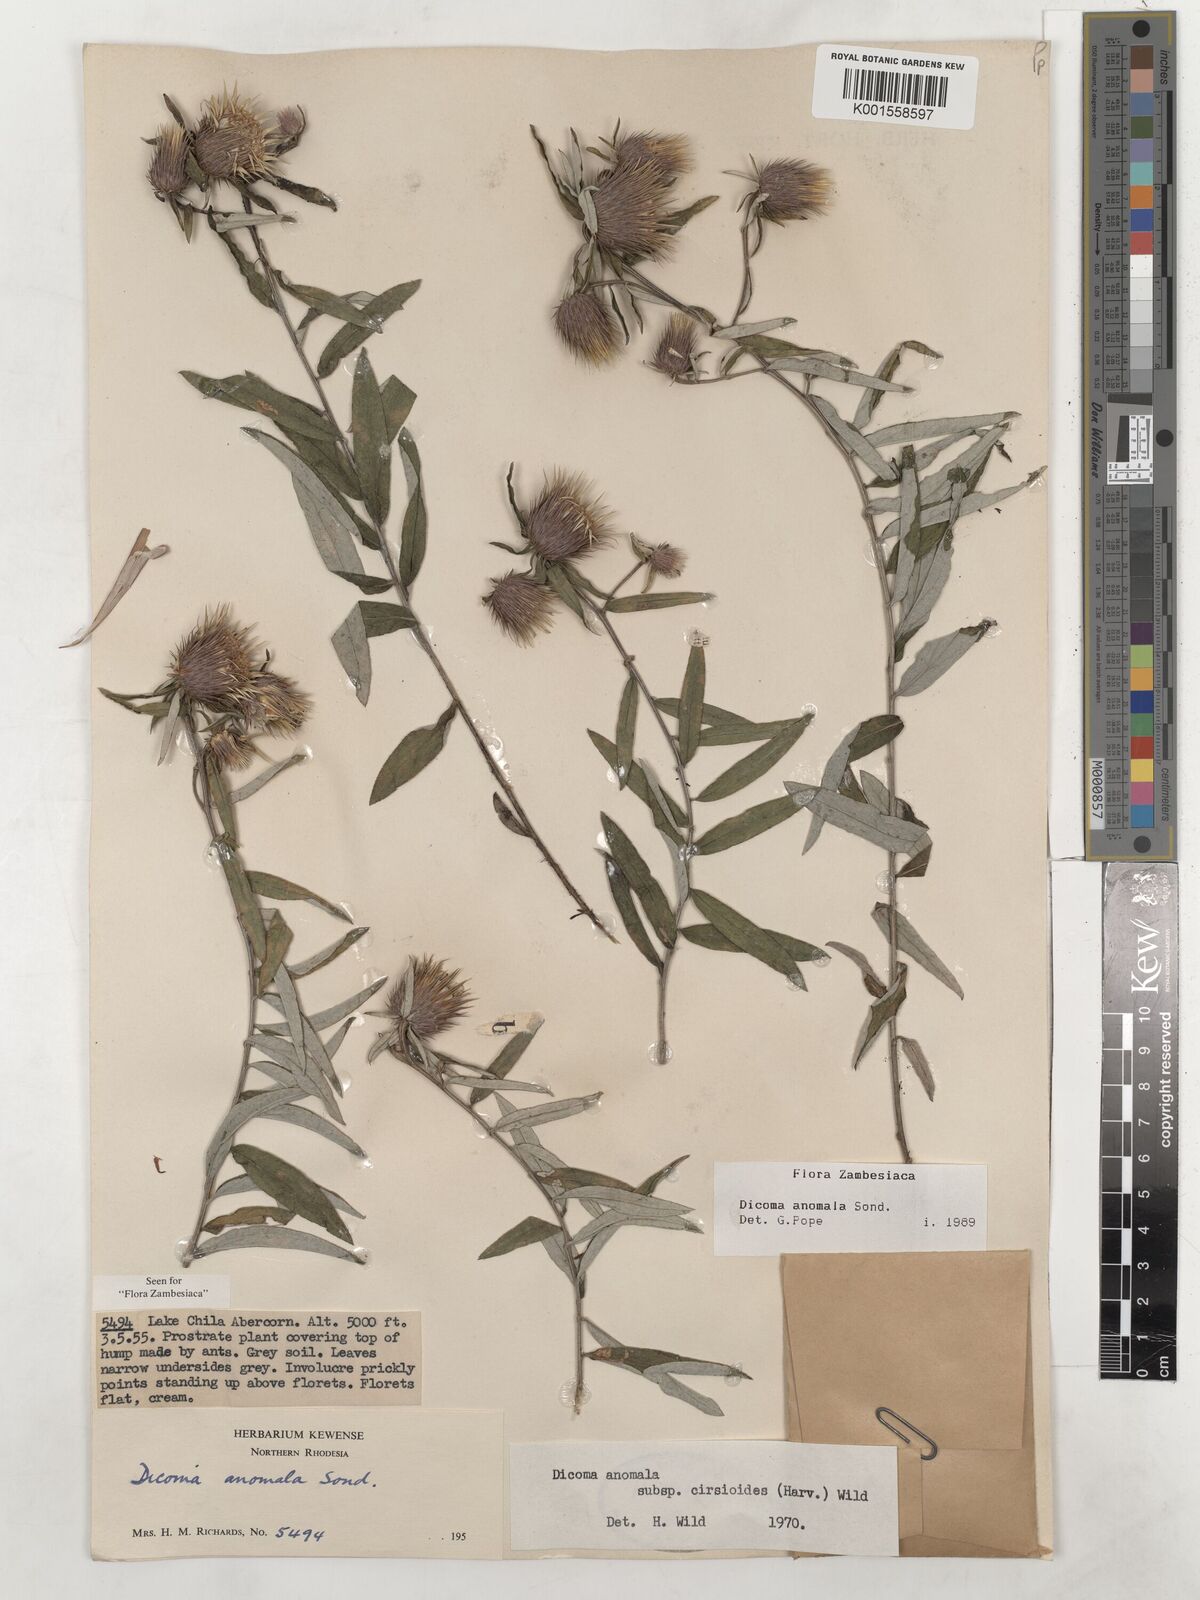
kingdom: Plantae
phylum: Tracheophyta
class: Magnoliopsida
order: Asterales
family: Asteraceae
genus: Dicoma
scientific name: Dicoma anomala
